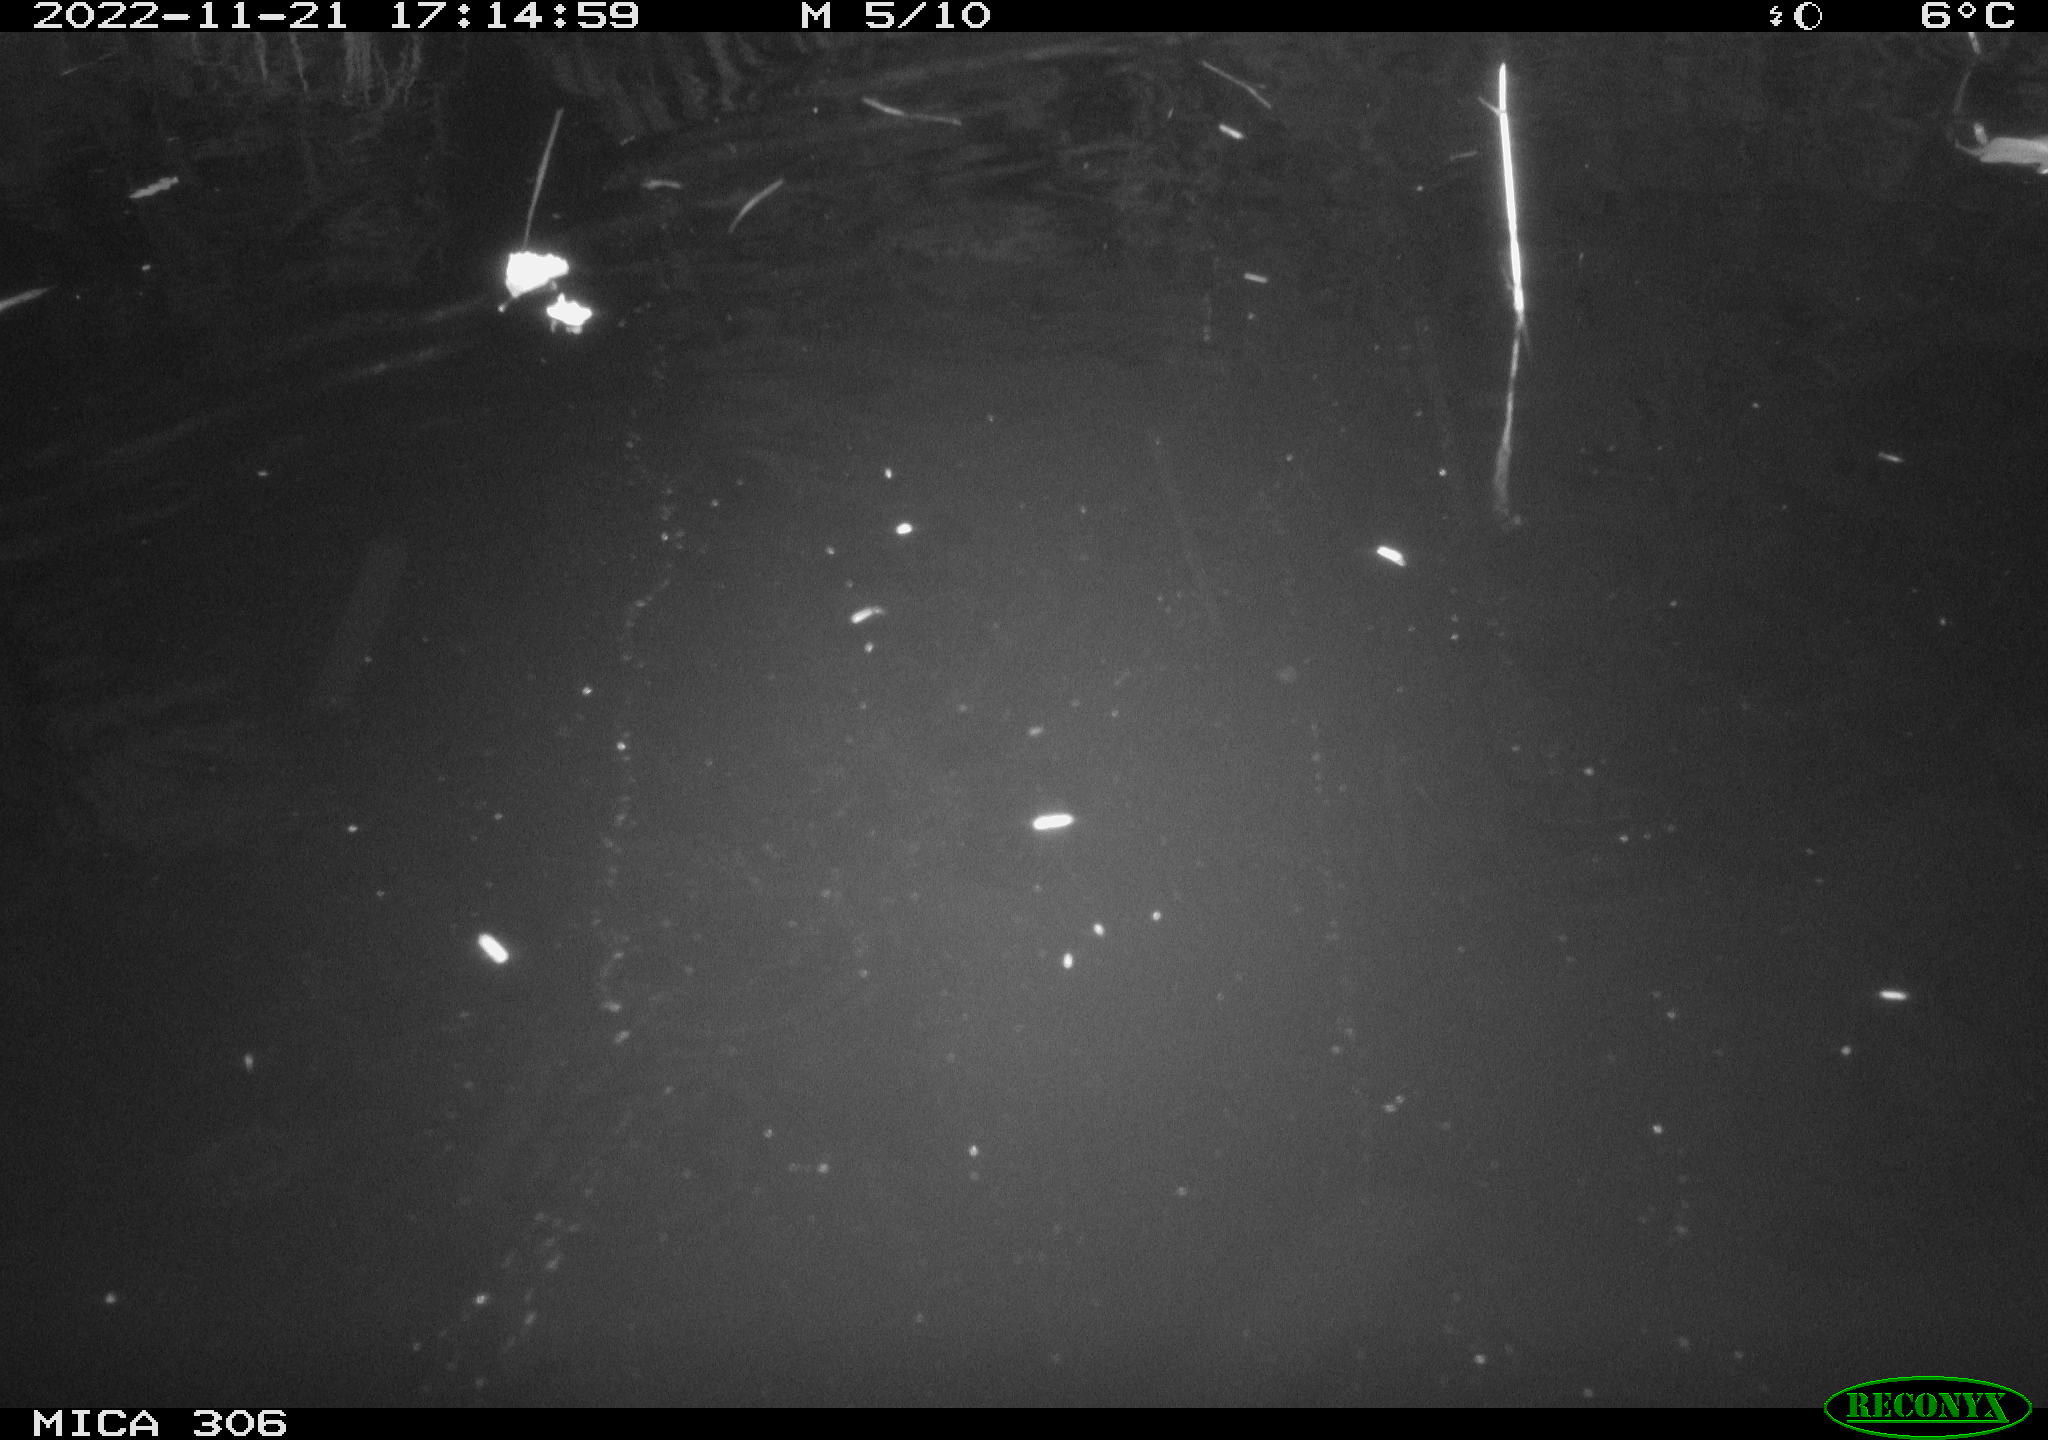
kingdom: Animalia
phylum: Chordata
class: Mammalia
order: Rodentia
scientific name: Rodentia
